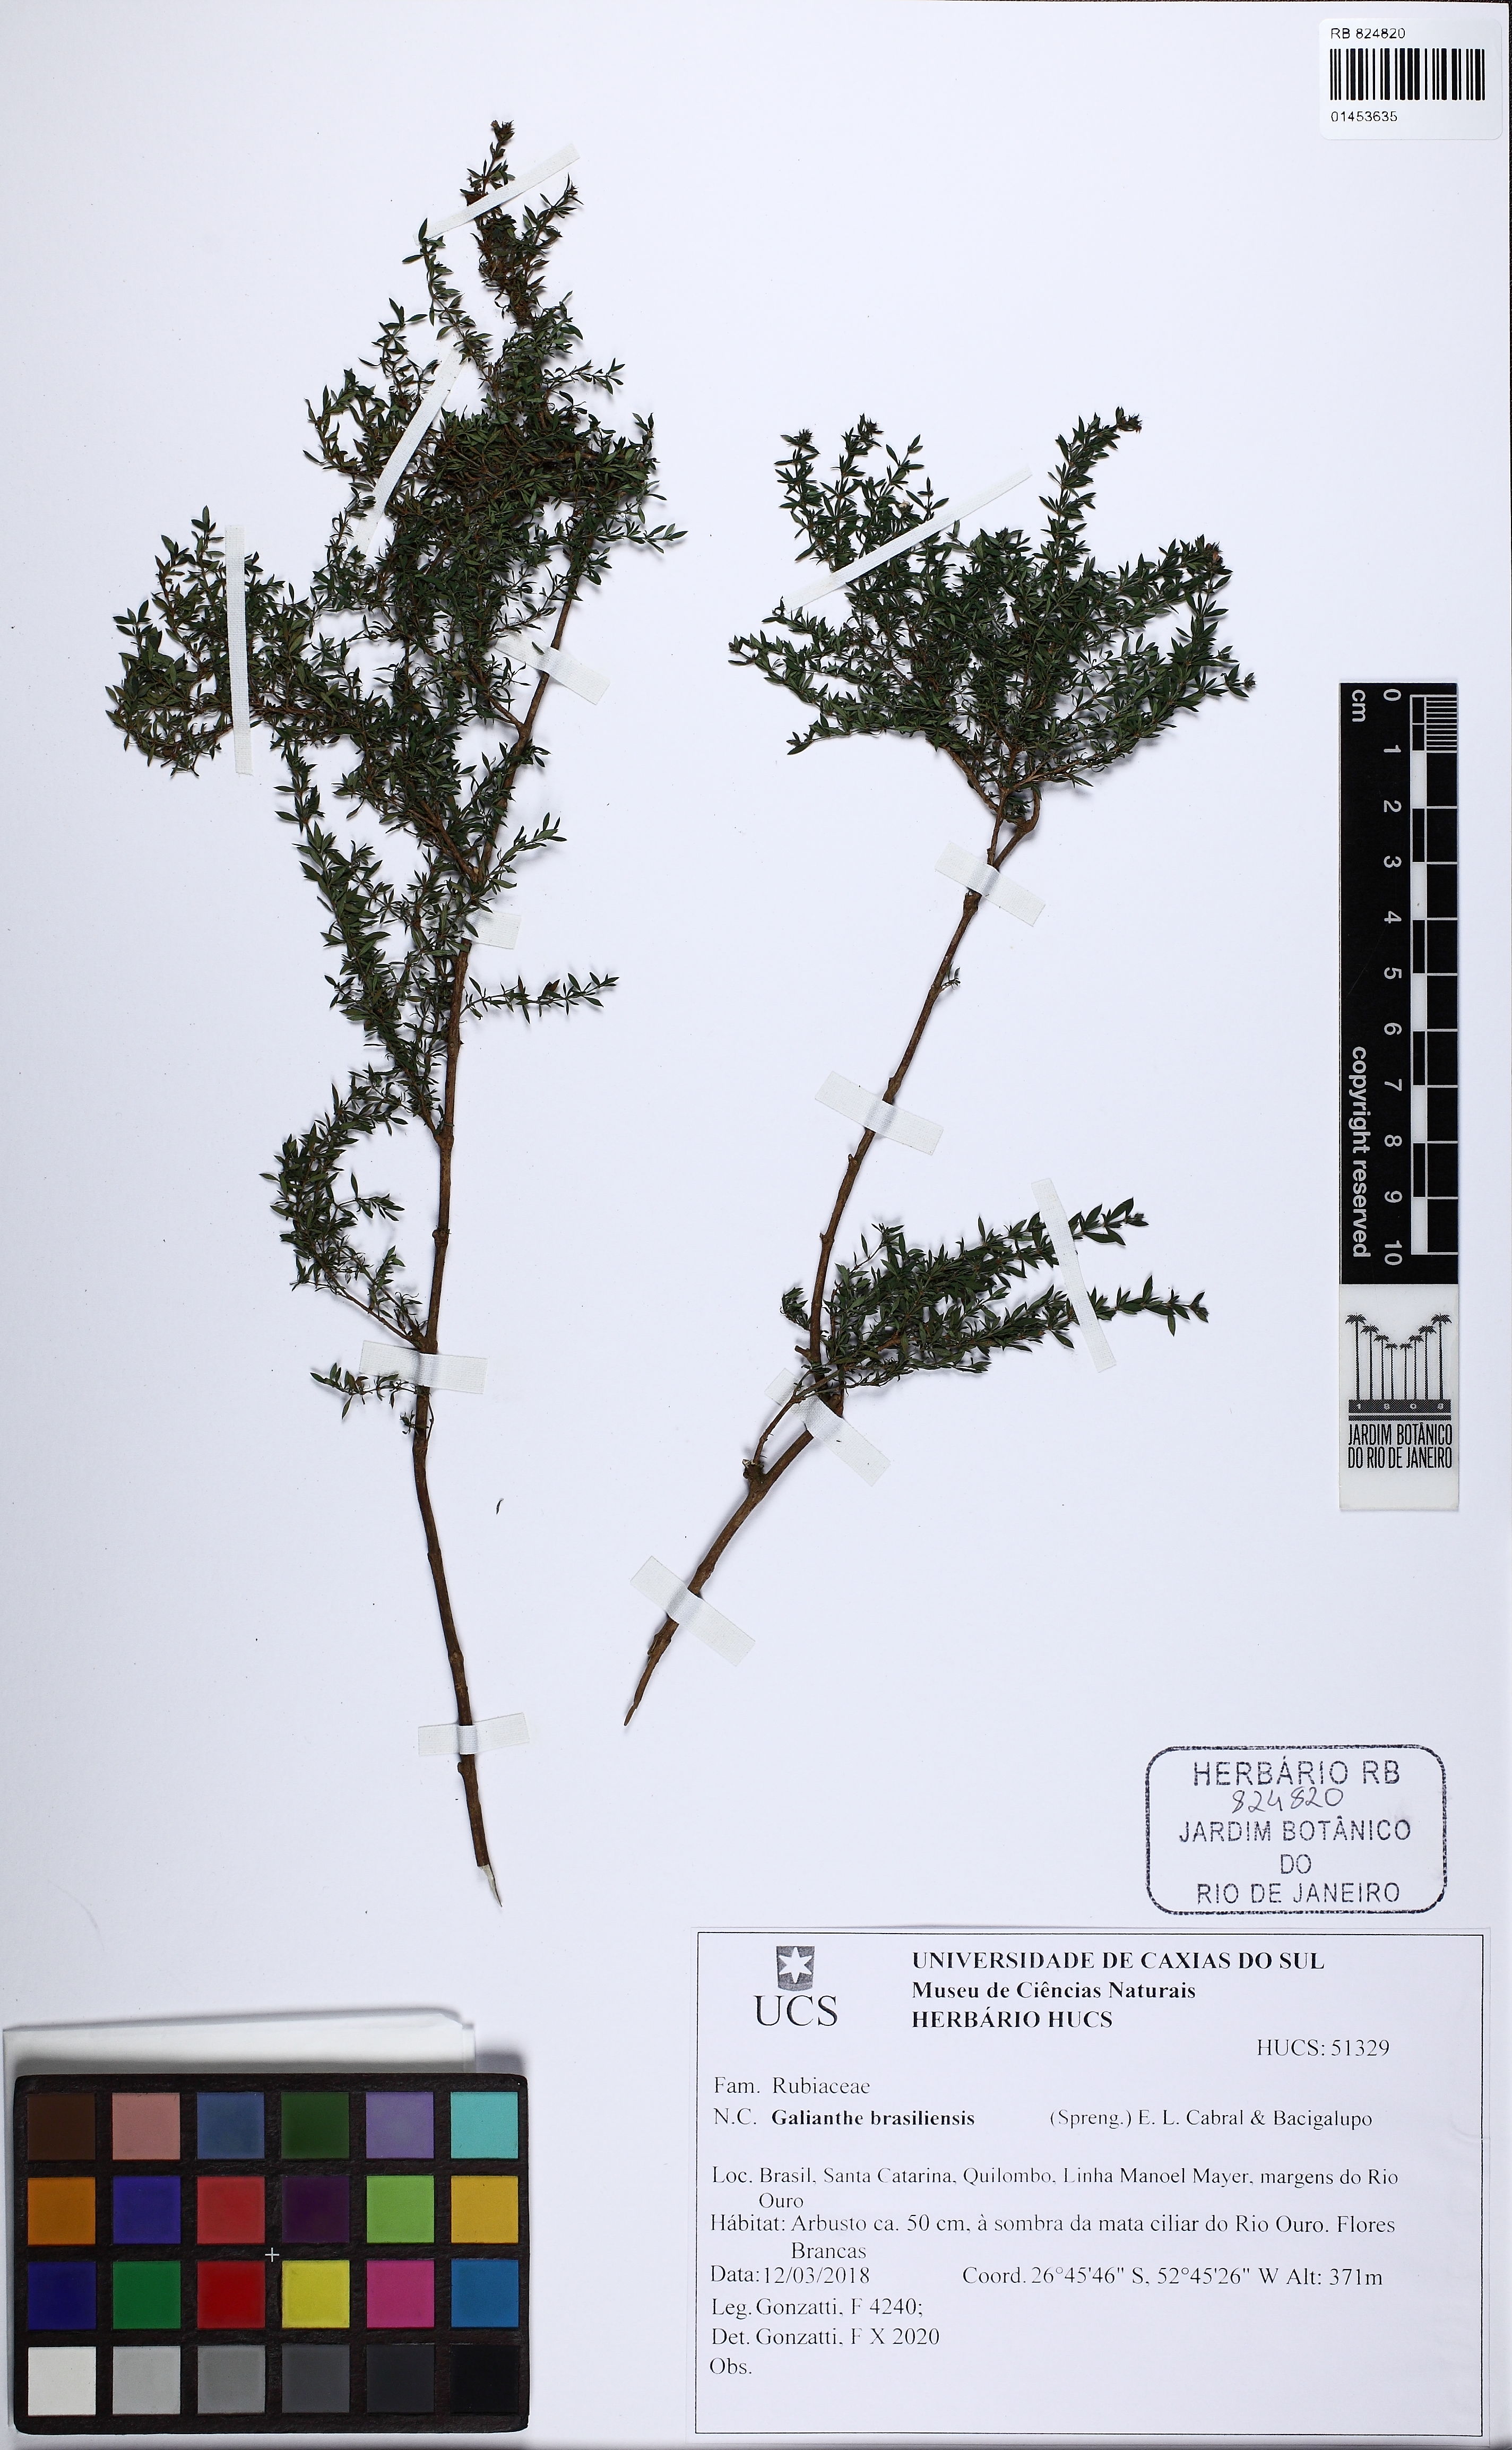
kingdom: Plantae
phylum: Tracheophyta
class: Magnoliopsida
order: Gentianales
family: Rubiaceae
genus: Galianthe
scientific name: Galianthe brasiliensis
